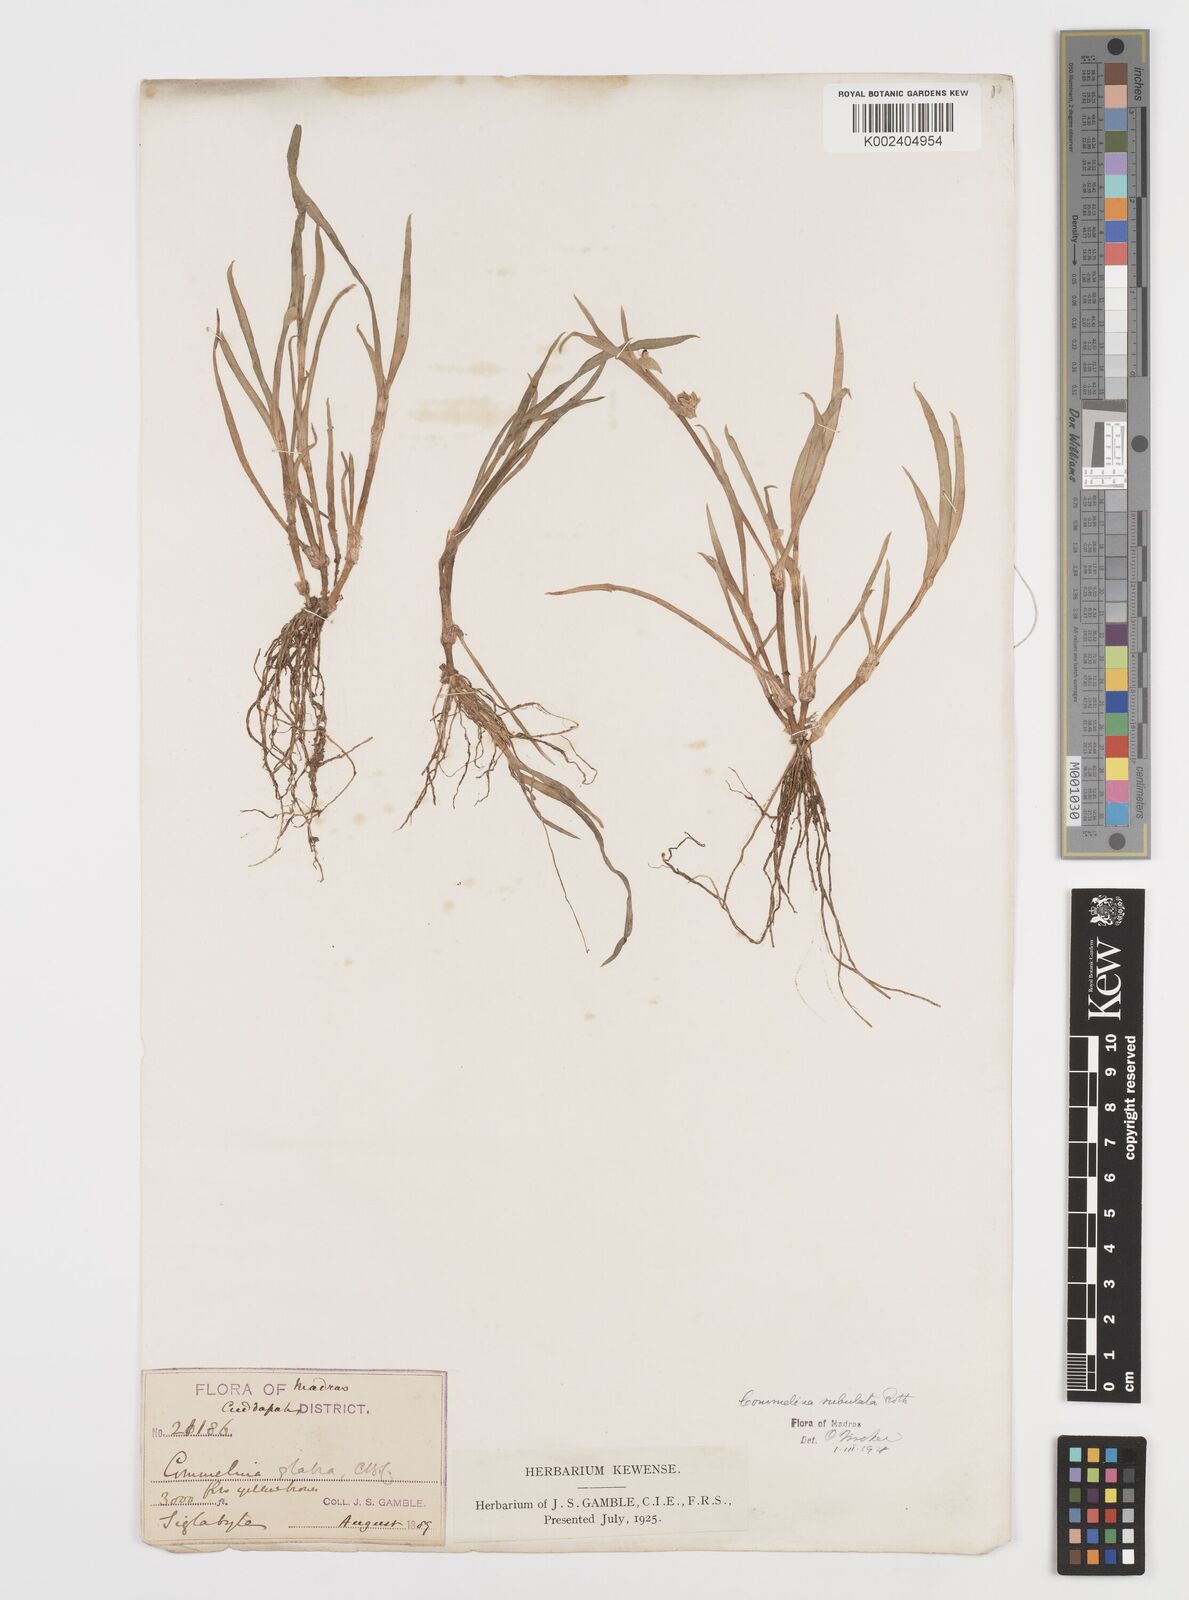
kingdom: Plantae
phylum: Tracheophyta
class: Liliopsida
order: Commelinales
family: Commelinaceae
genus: Commelina
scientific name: Commelina subulata
